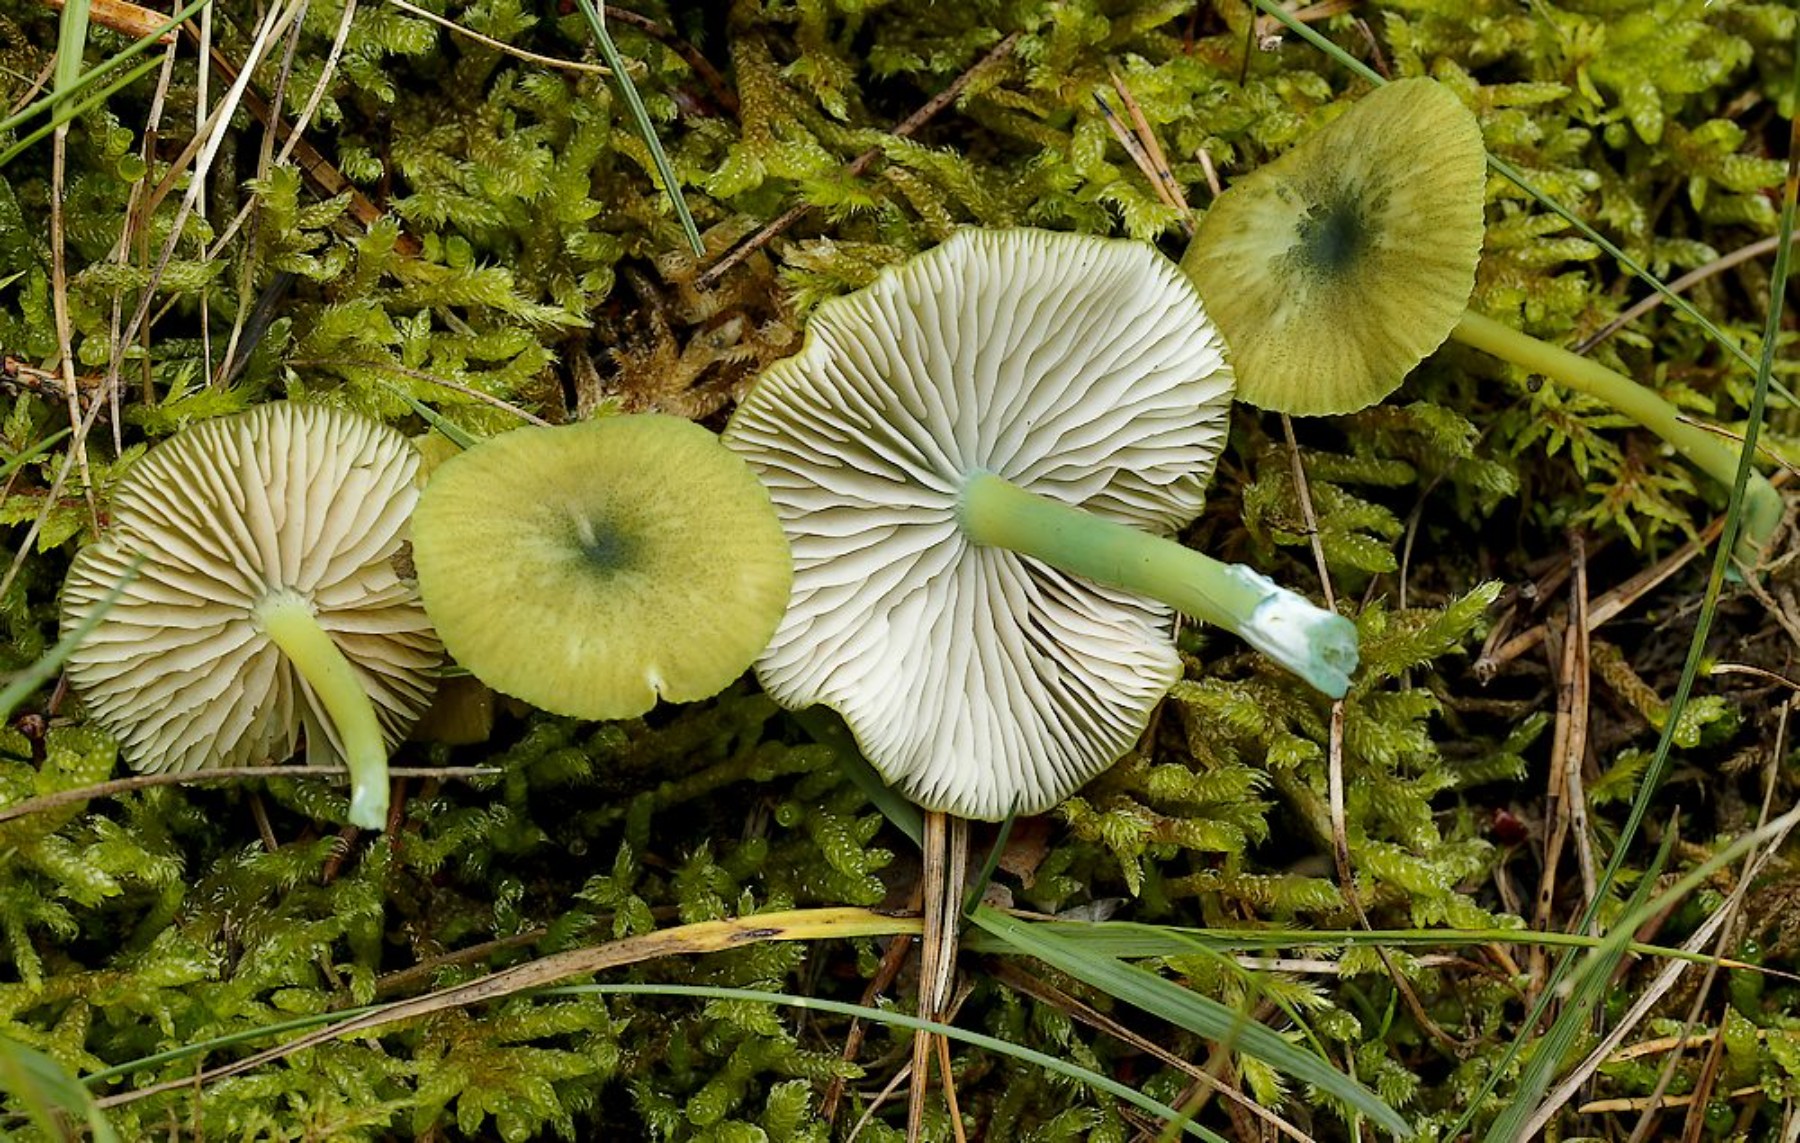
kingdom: Fungi
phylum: Basidiomycota
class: Agaricomycetes
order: Agaricales
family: Entolomataceae
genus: Entoloma
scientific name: Entoloma incanum
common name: grøngul rødblad
